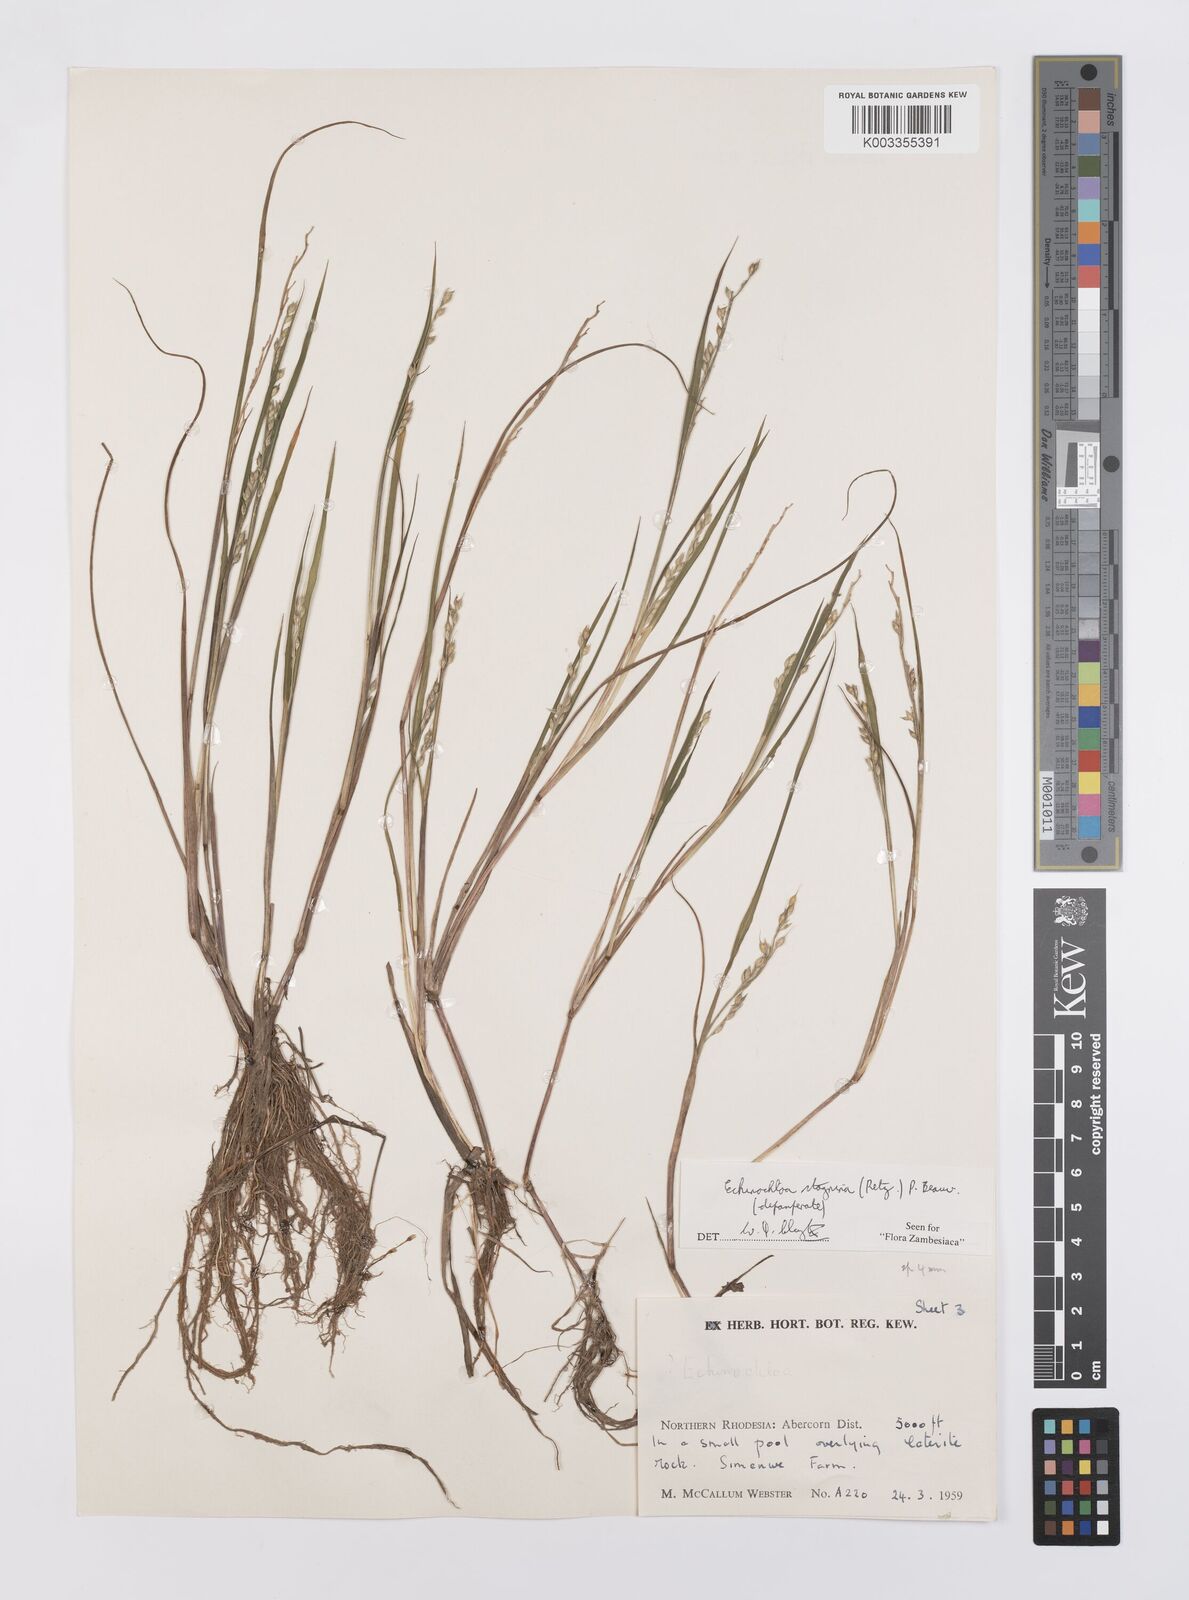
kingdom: Plantae
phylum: Tracheophyta
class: Liliopsida
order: Poales
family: Poaceae
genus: Echinochloa
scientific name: Echinochloa stagnina
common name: Burgu grass
